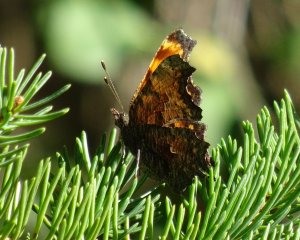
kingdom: Animalia
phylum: Arthropoda
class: Insecta
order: Lepidoptera
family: Nymphalidae
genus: Polygonia
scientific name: Polygonia progne
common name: Gray Comma
